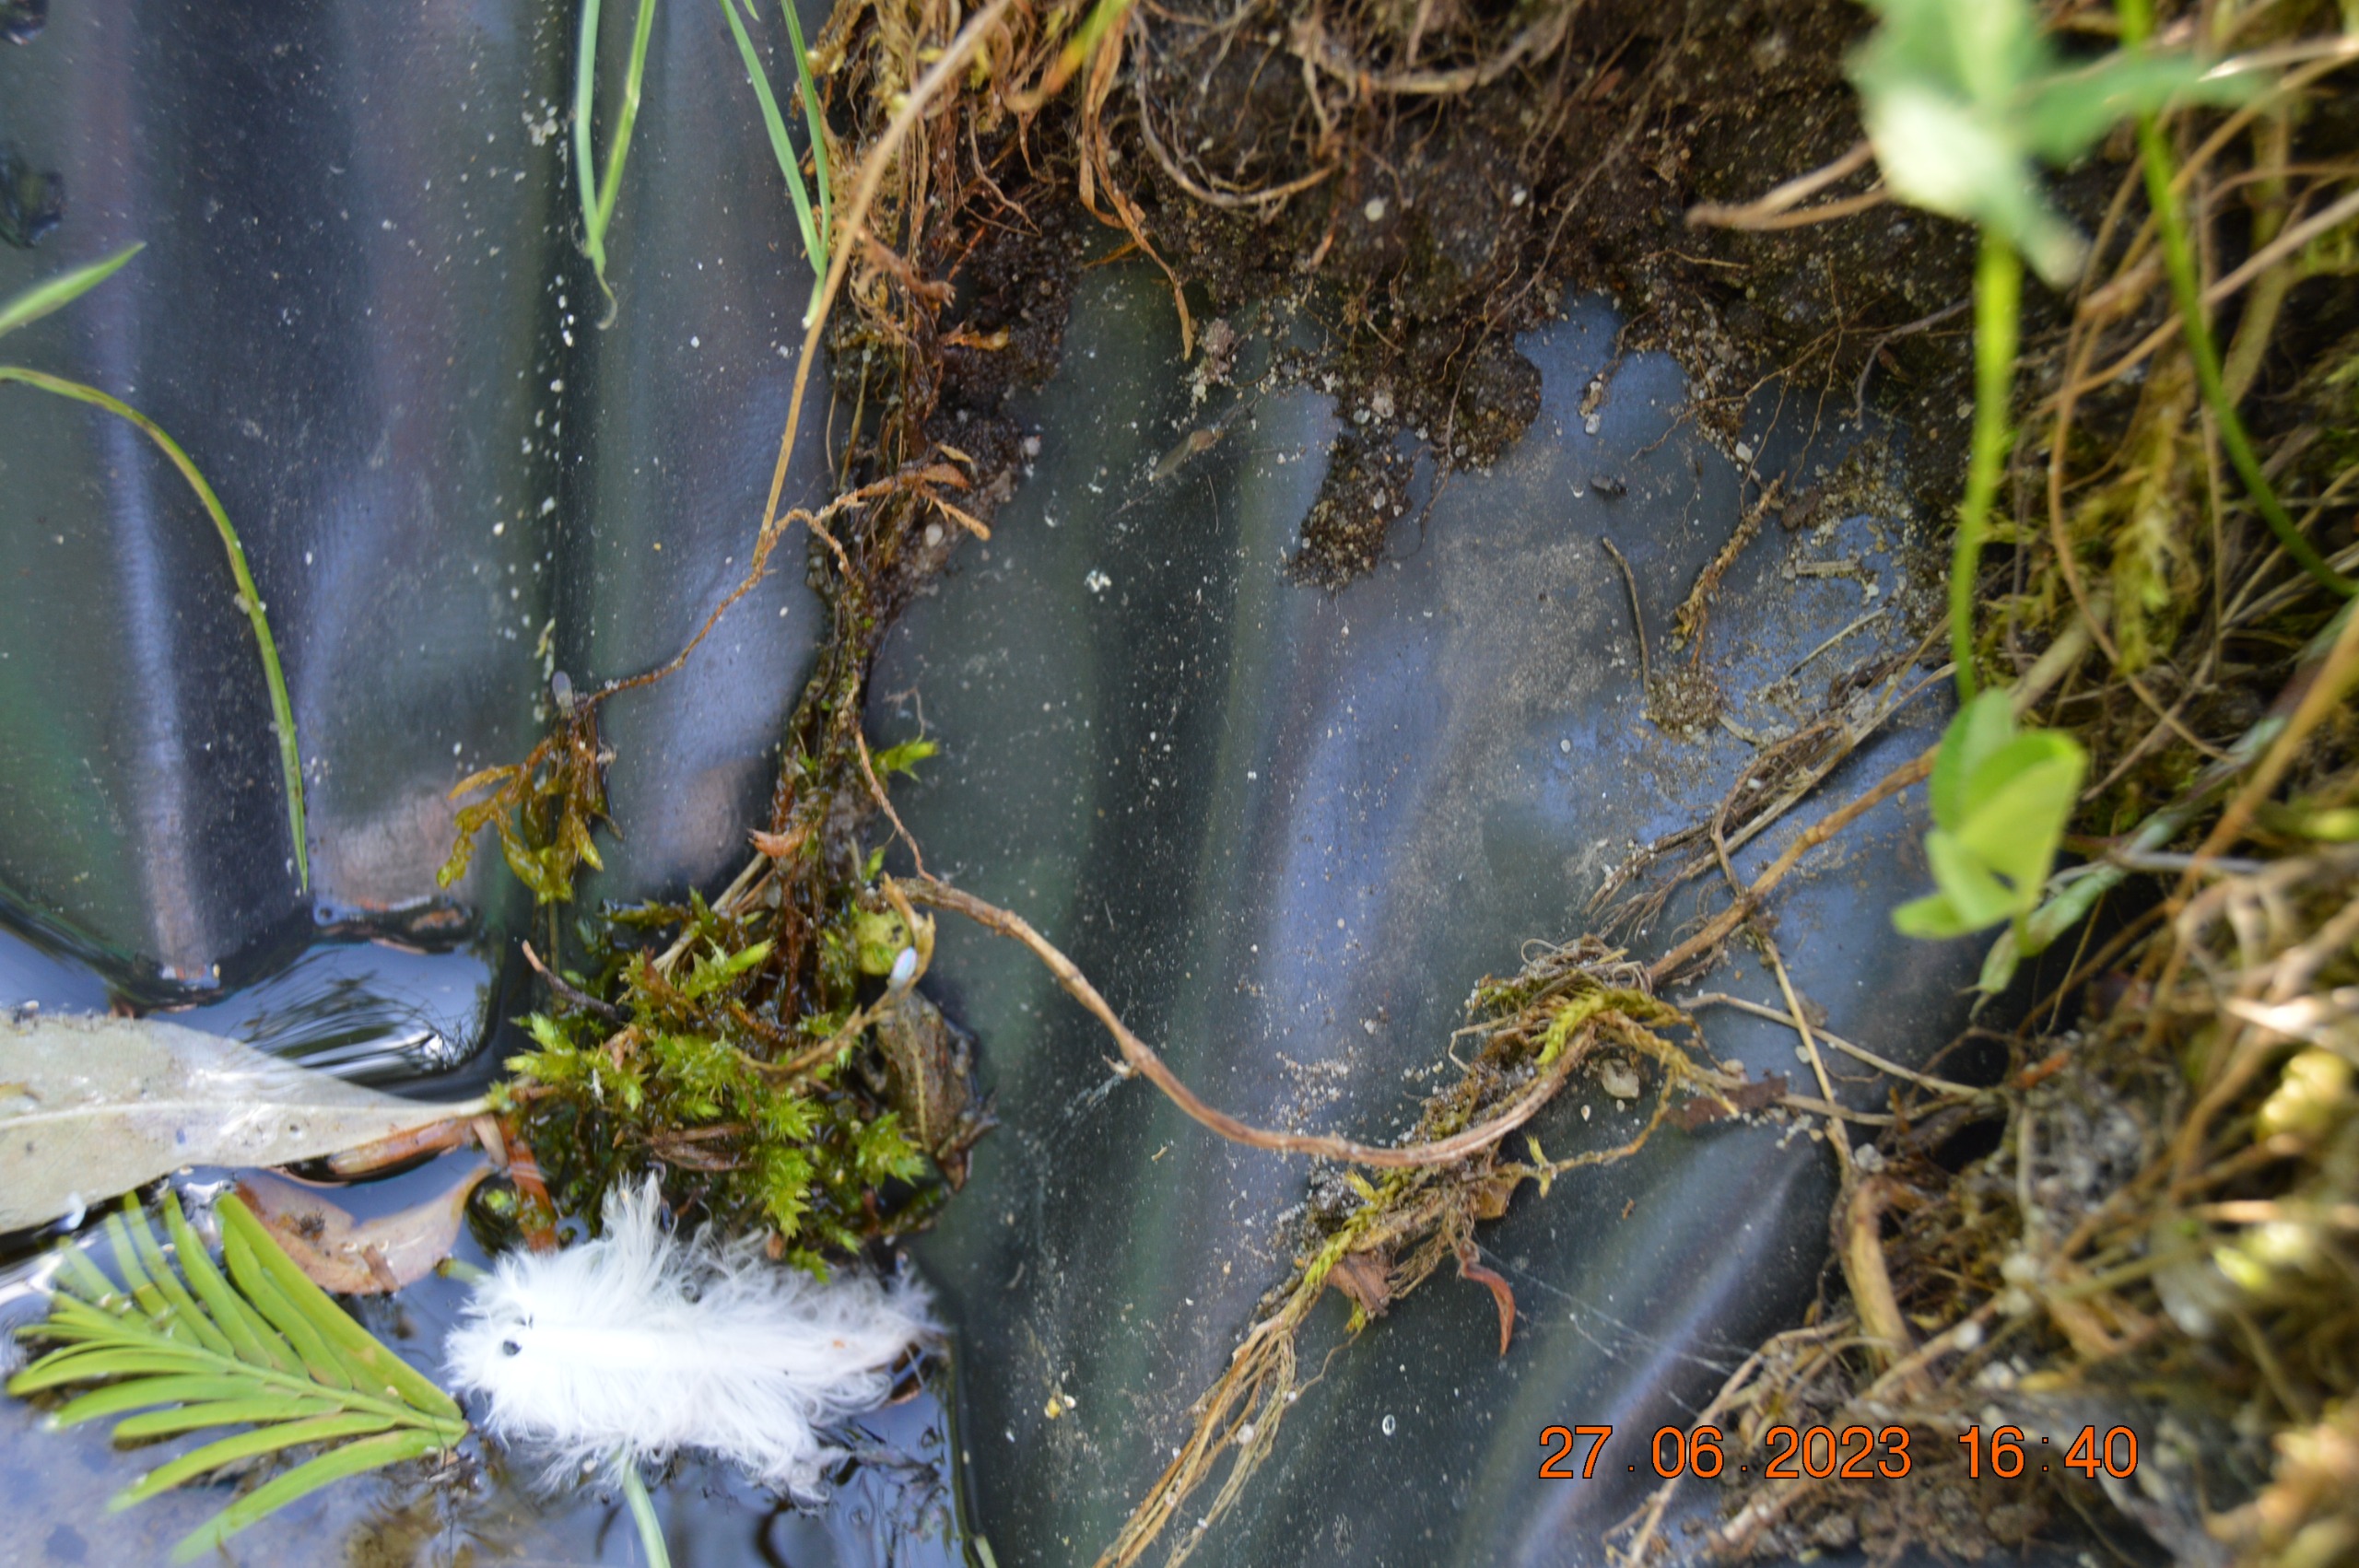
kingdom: Animalia
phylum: Chordata
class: Amphibia
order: Anura
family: Bufonidae
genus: Epidalea
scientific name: Epidalea calamita
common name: Strandtudse
